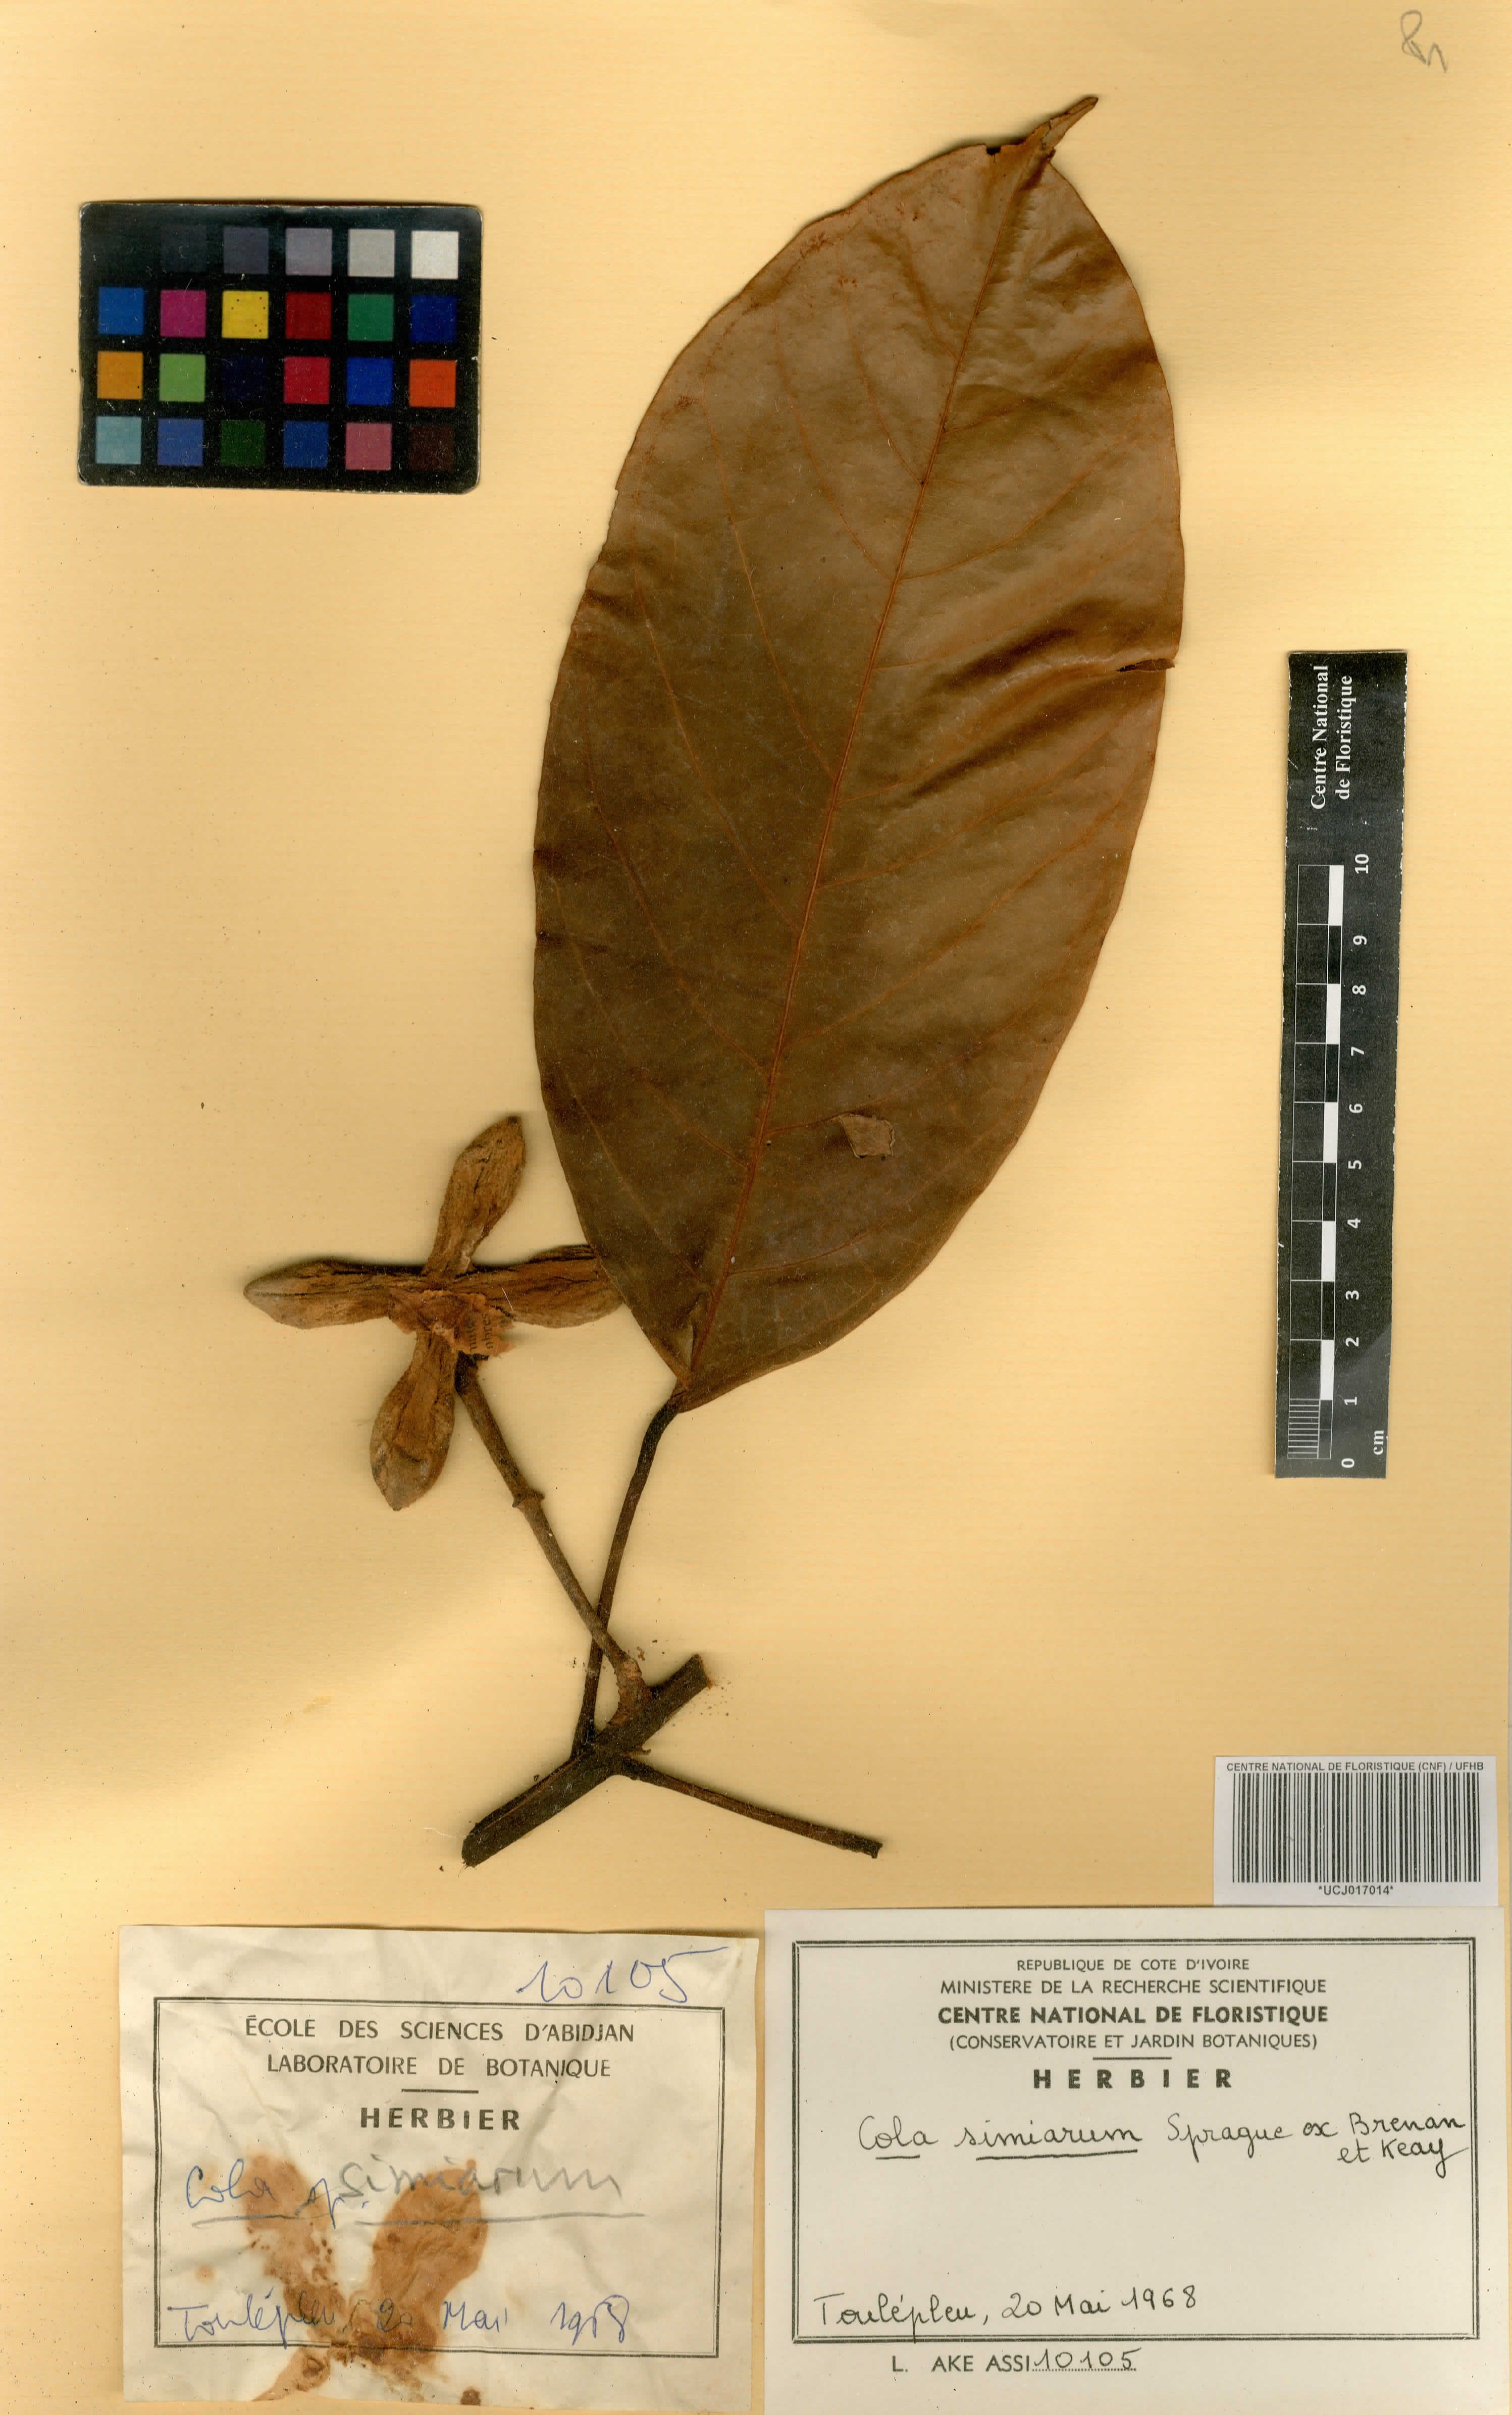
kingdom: Plantae
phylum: Tracheophyta
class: Magnoliopsida
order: Malvales
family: Malvaceae
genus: Cola
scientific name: Cola simiarum
